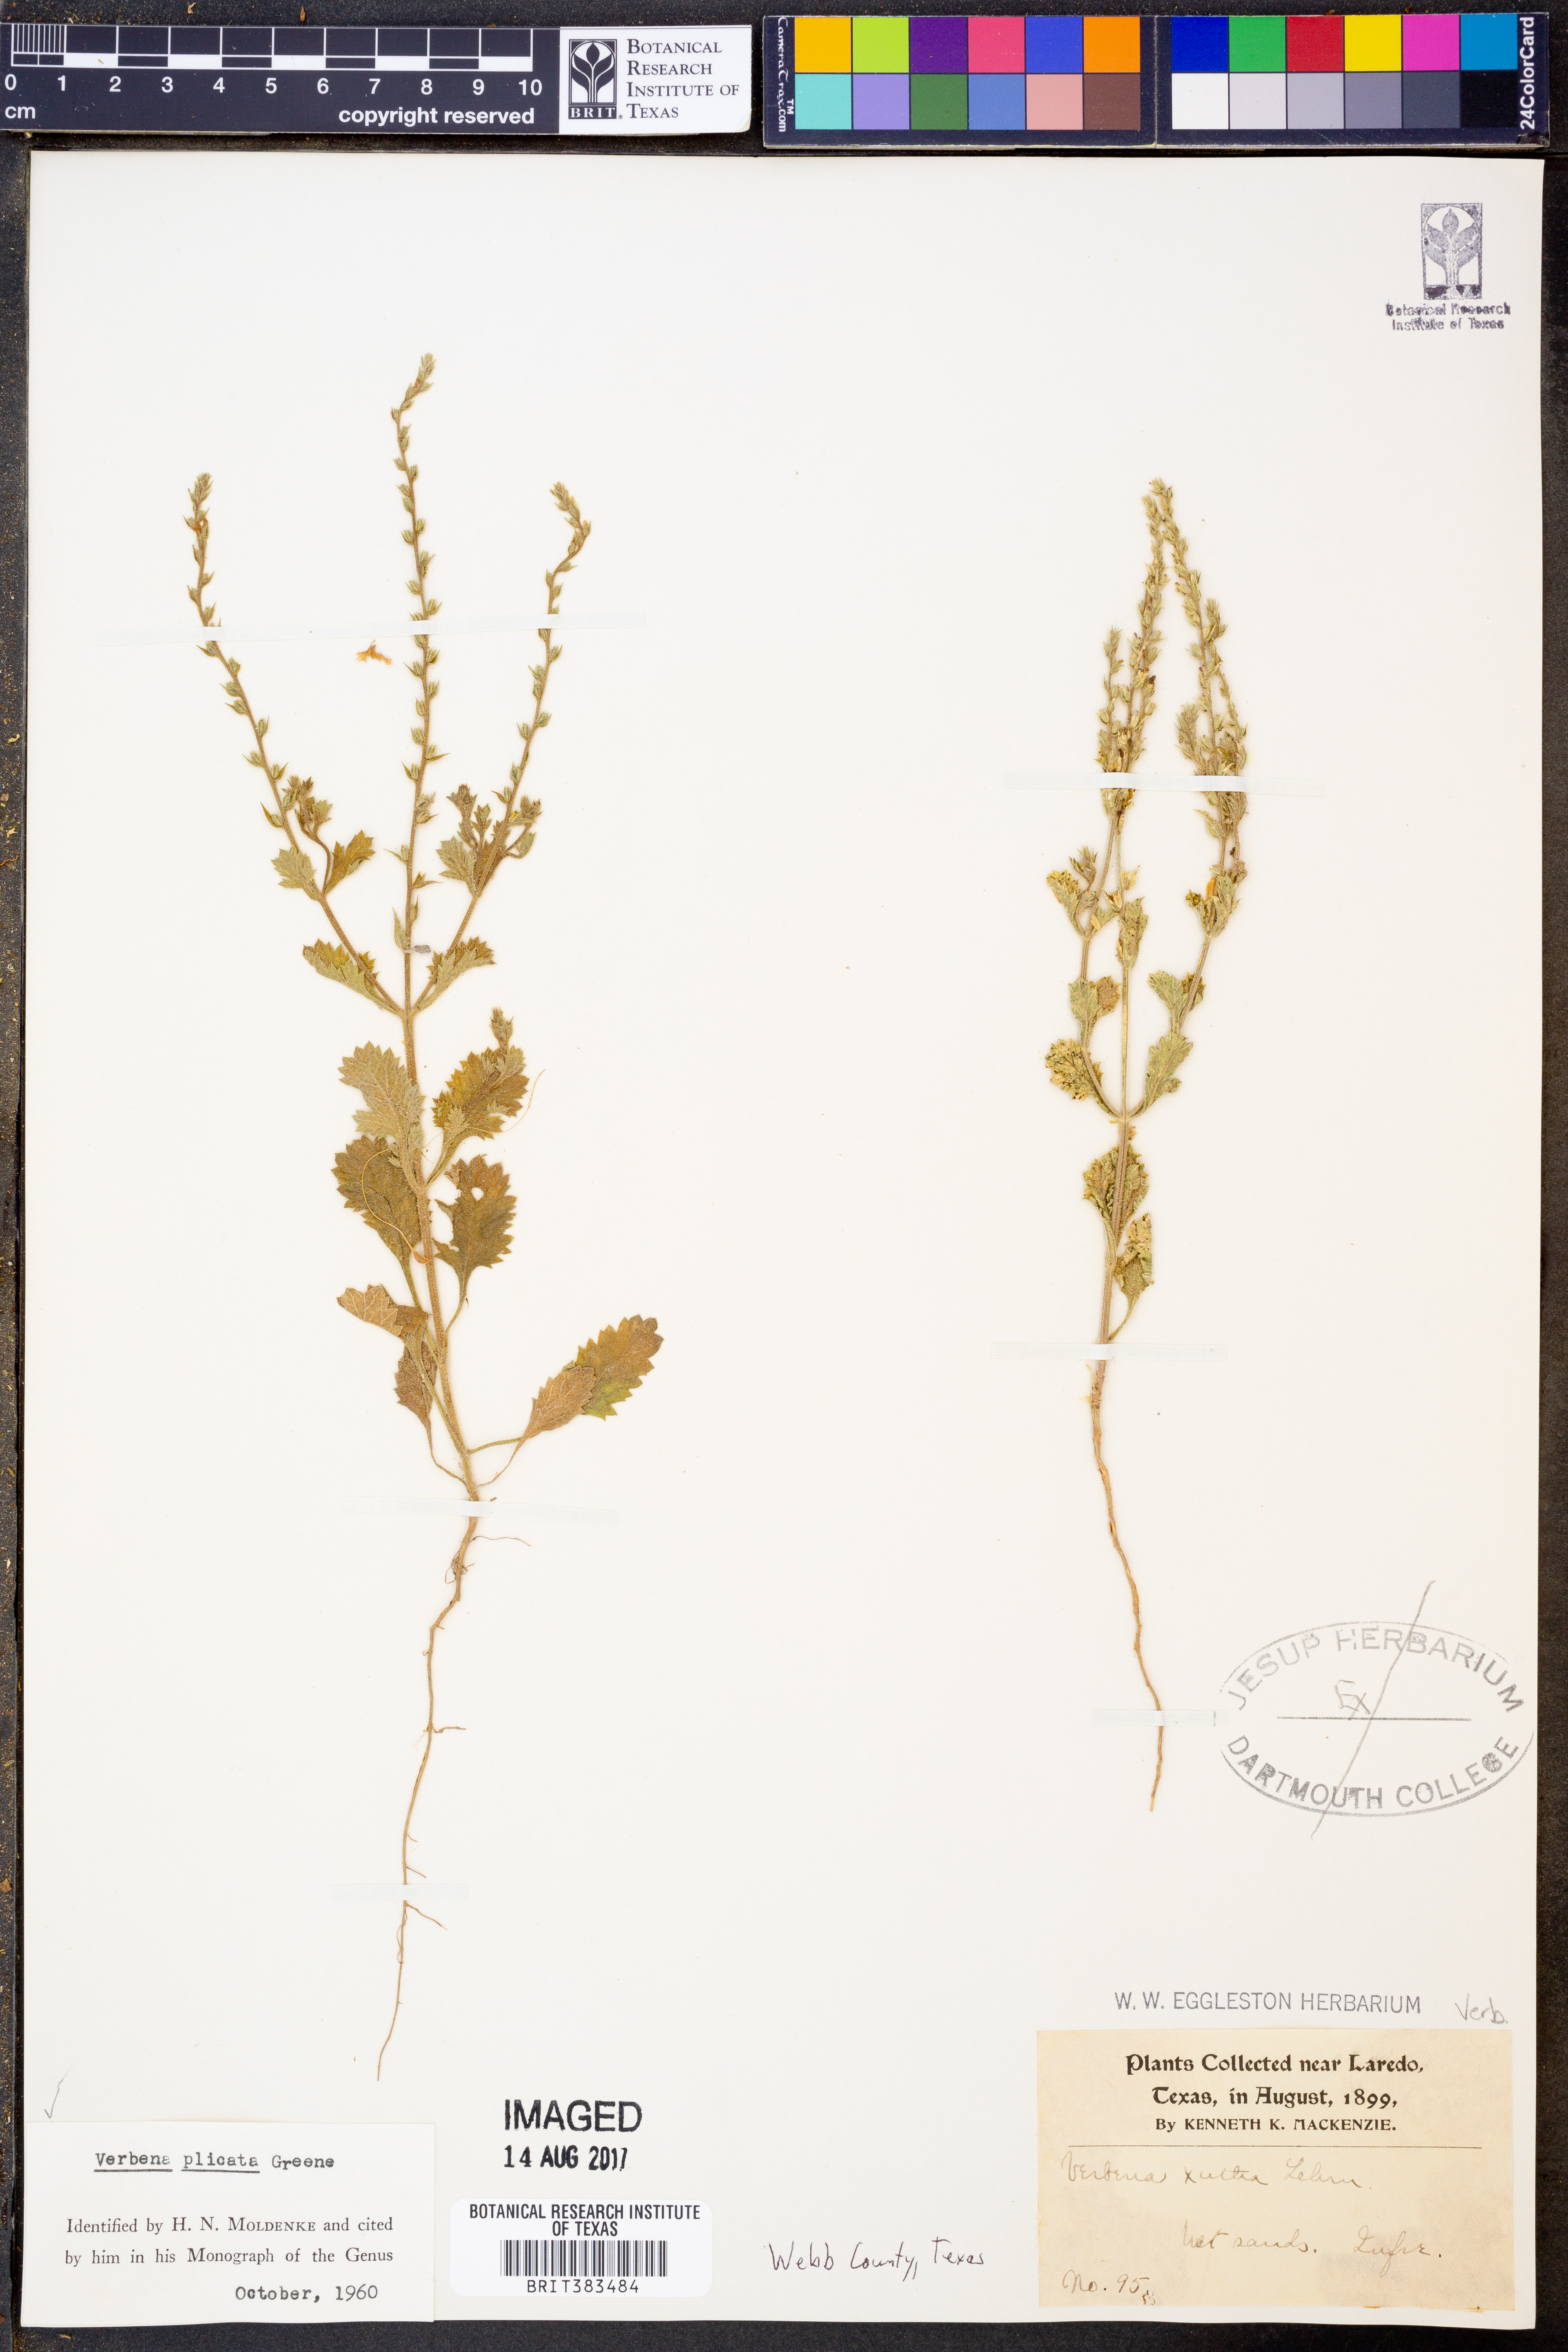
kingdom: Plantae
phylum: Tracheophyta
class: Magnoliopsida
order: Lamiales
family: Verbenaceae
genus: Verbena
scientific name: Verbena plicata
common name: Fan-leaf vervain
